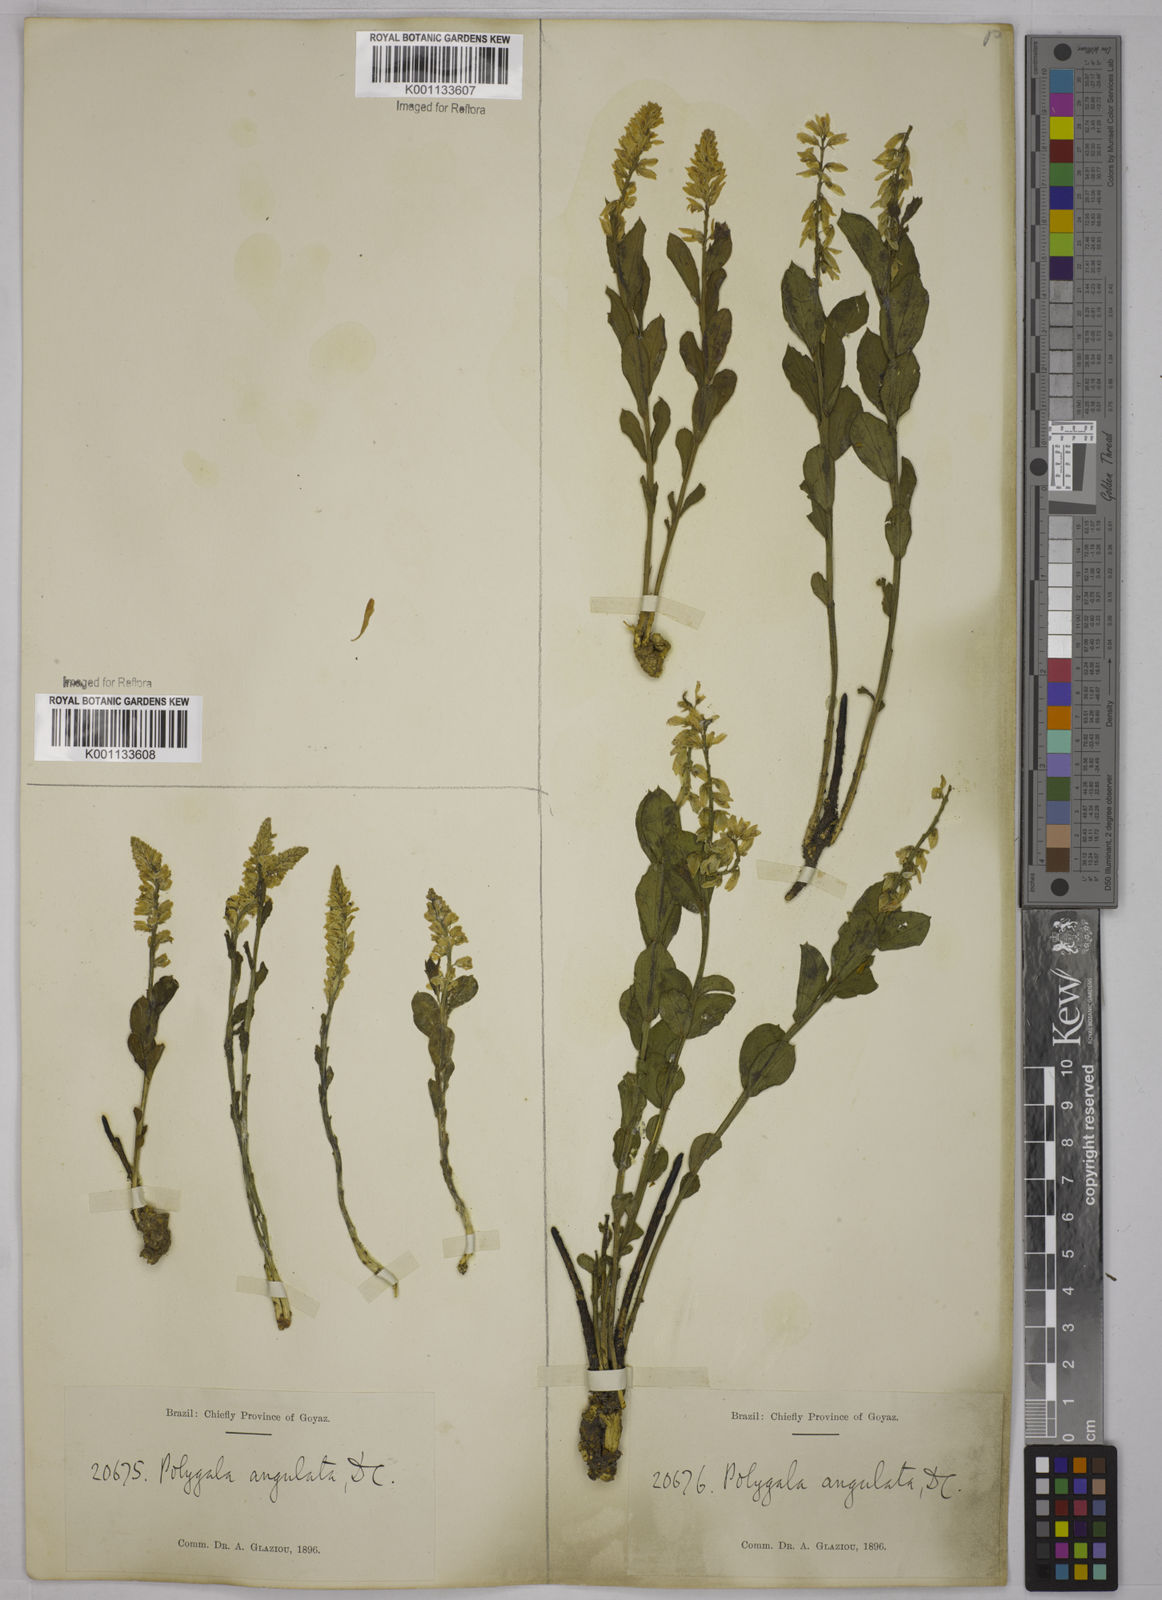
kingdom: Plantae
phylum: Tracheophyta
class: Magnoliopsida
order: Fabales
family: Polygalaceae
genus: Polygala
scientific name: Polygala poaya
